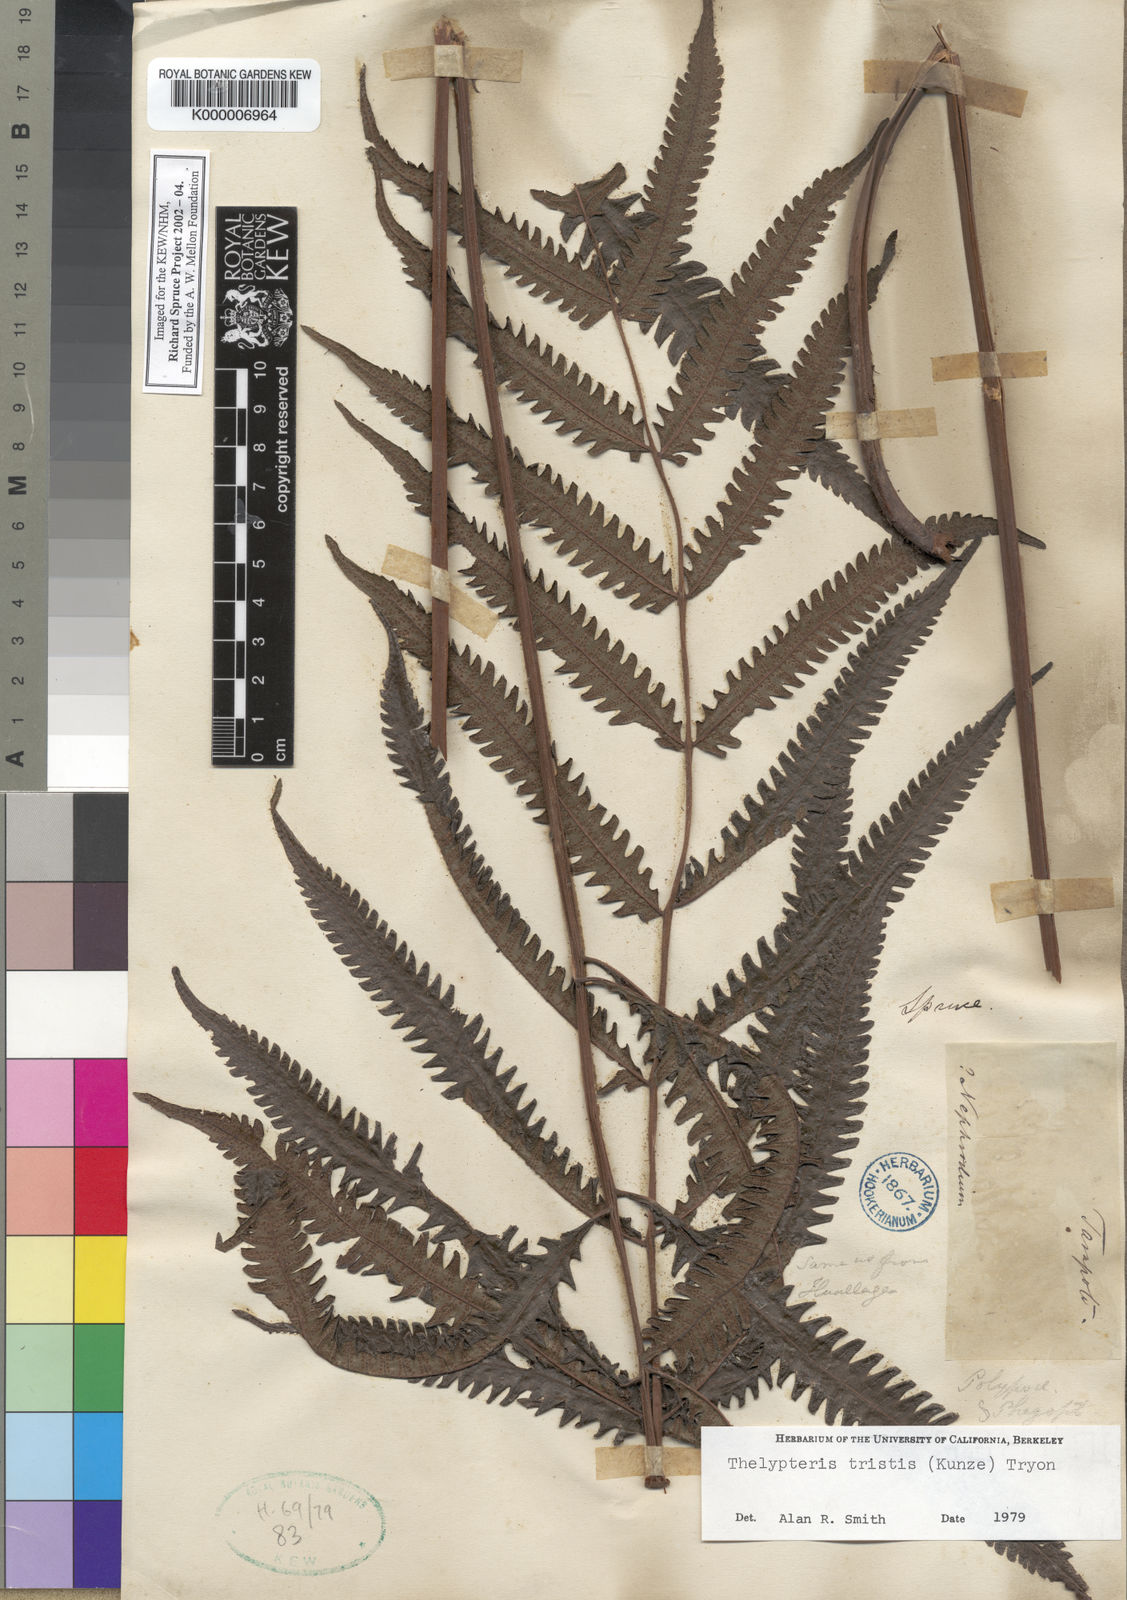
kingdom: Plantae
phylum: Tracheophyta
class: Polypodiopsida
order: Polypodiales
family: Thelypteridaceae
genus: Goniopteris
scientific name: Goniopteris tristis
